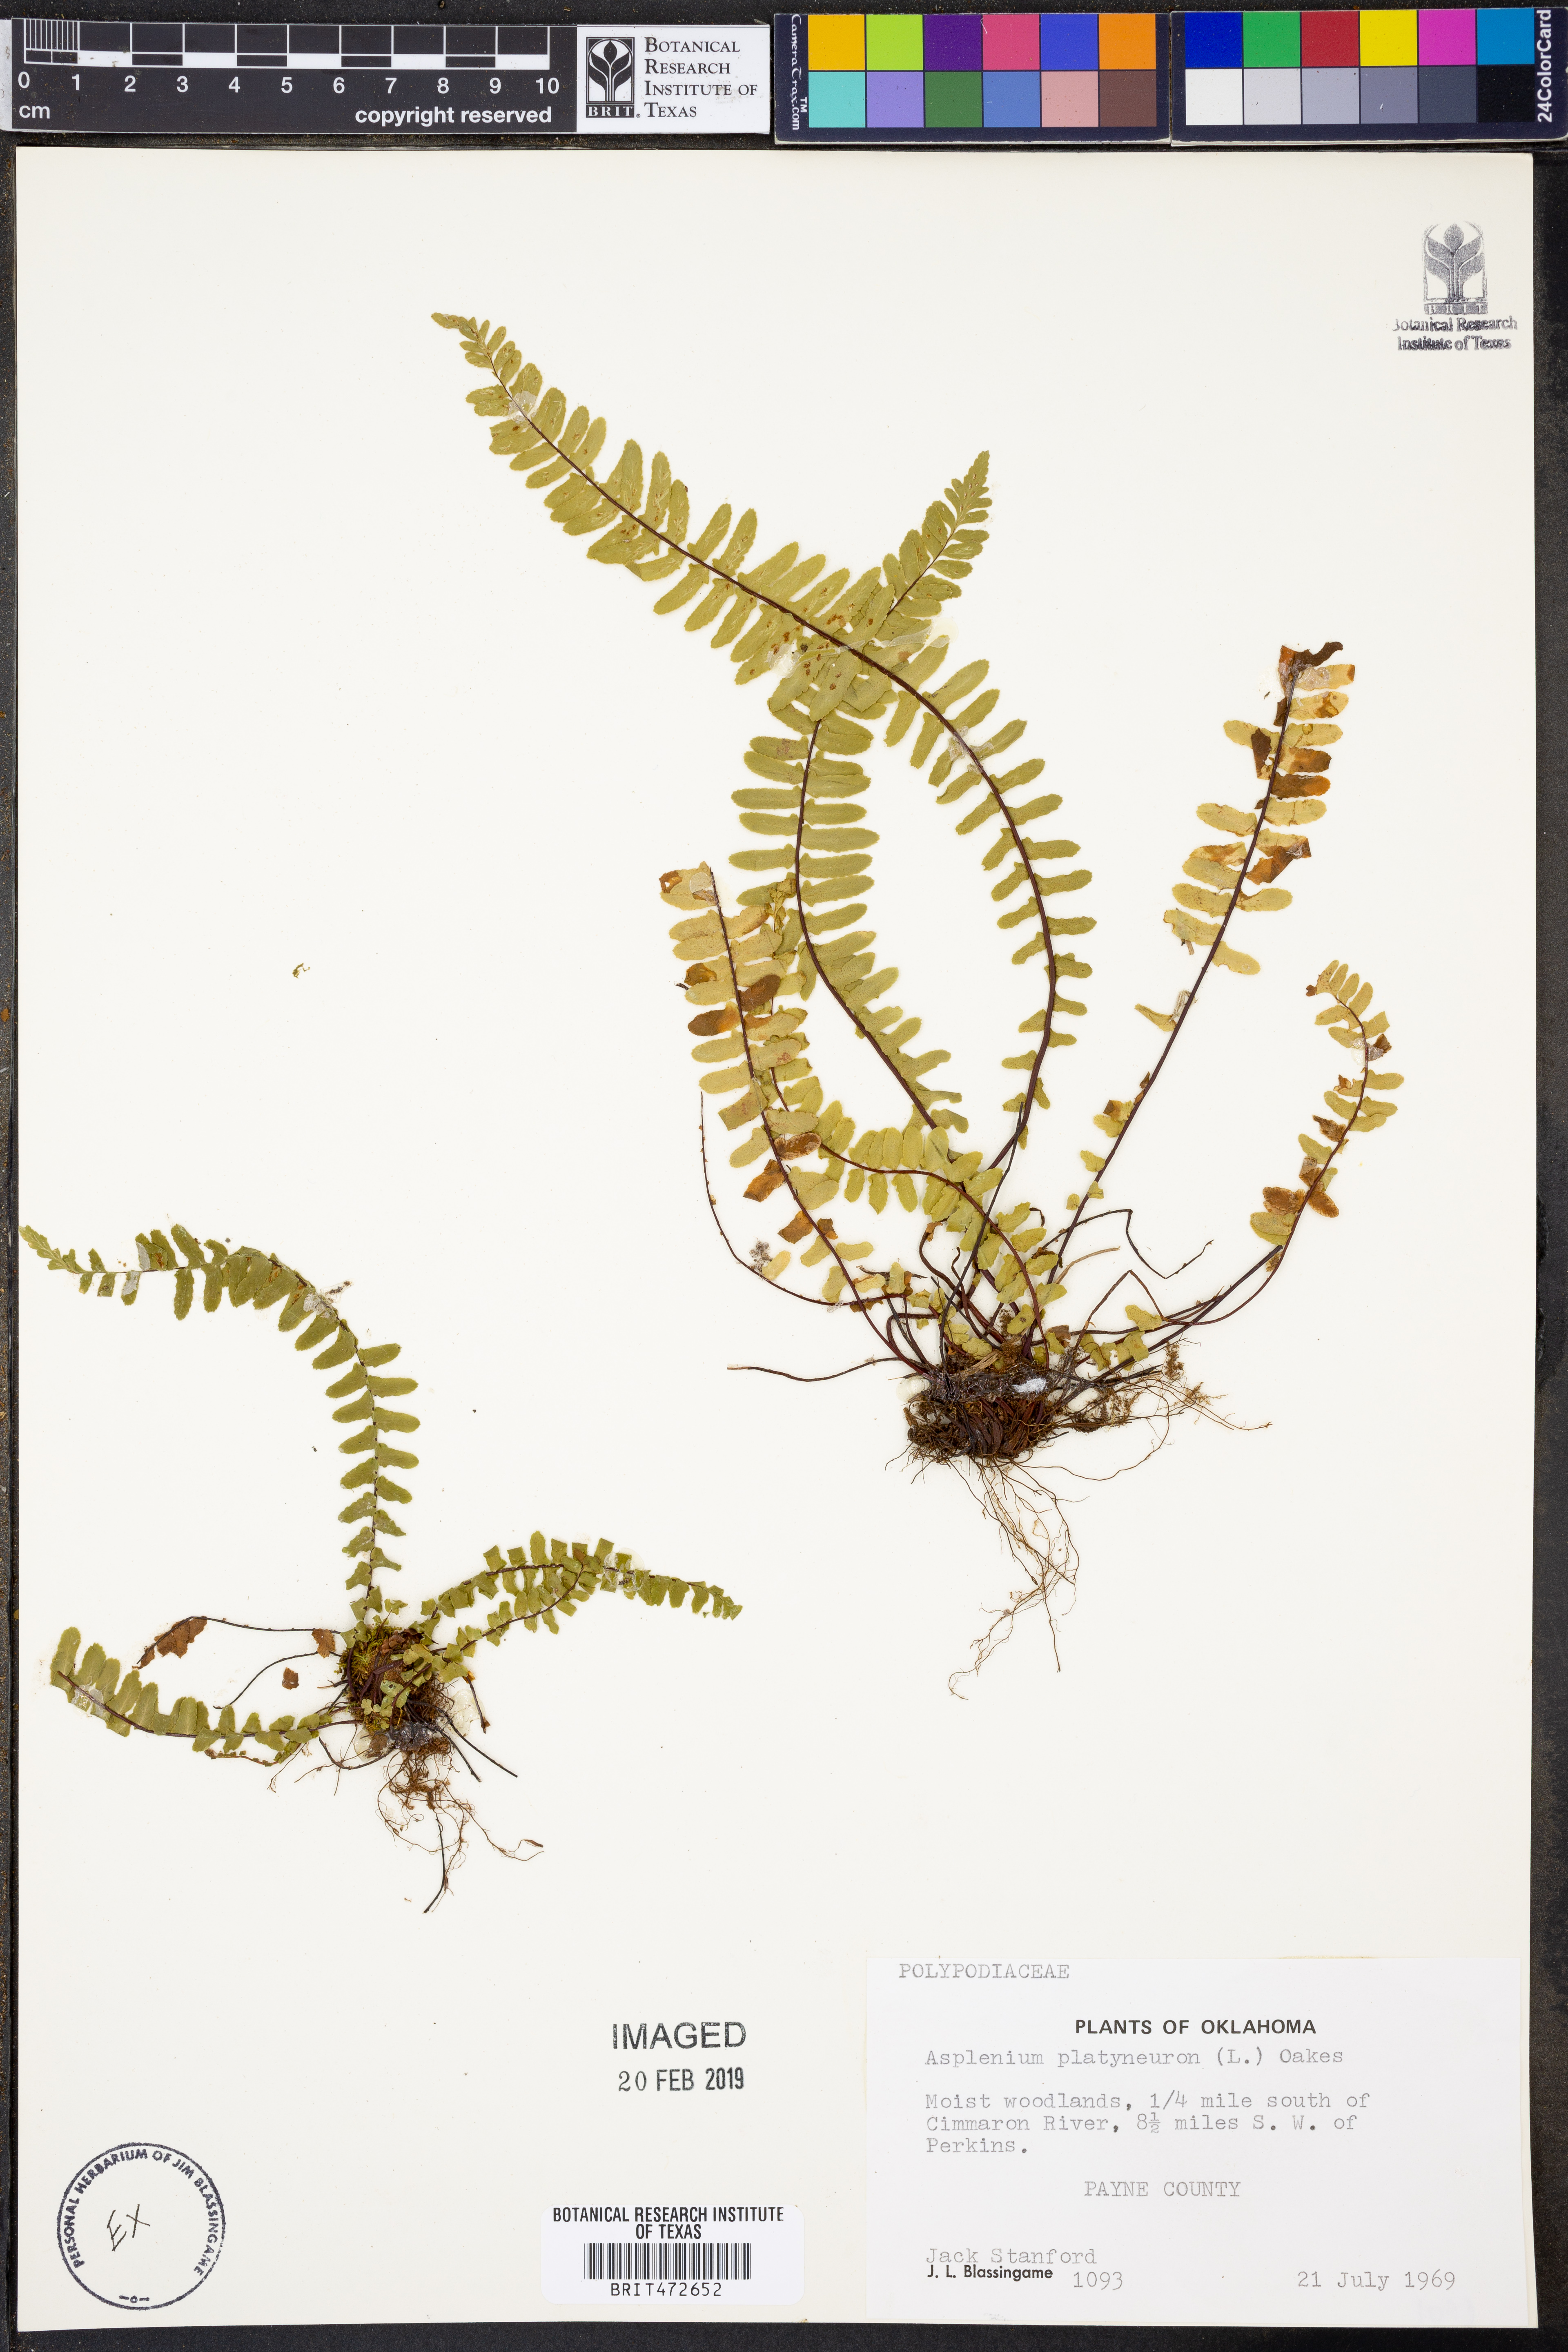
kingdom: Plantae
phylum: Tracheophyta
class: Polypodiopsida
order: Polypodiales
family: Aspleniaceae
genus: Asplenium
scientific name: Asplenium platyneuron
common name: Ebony spleenwort
